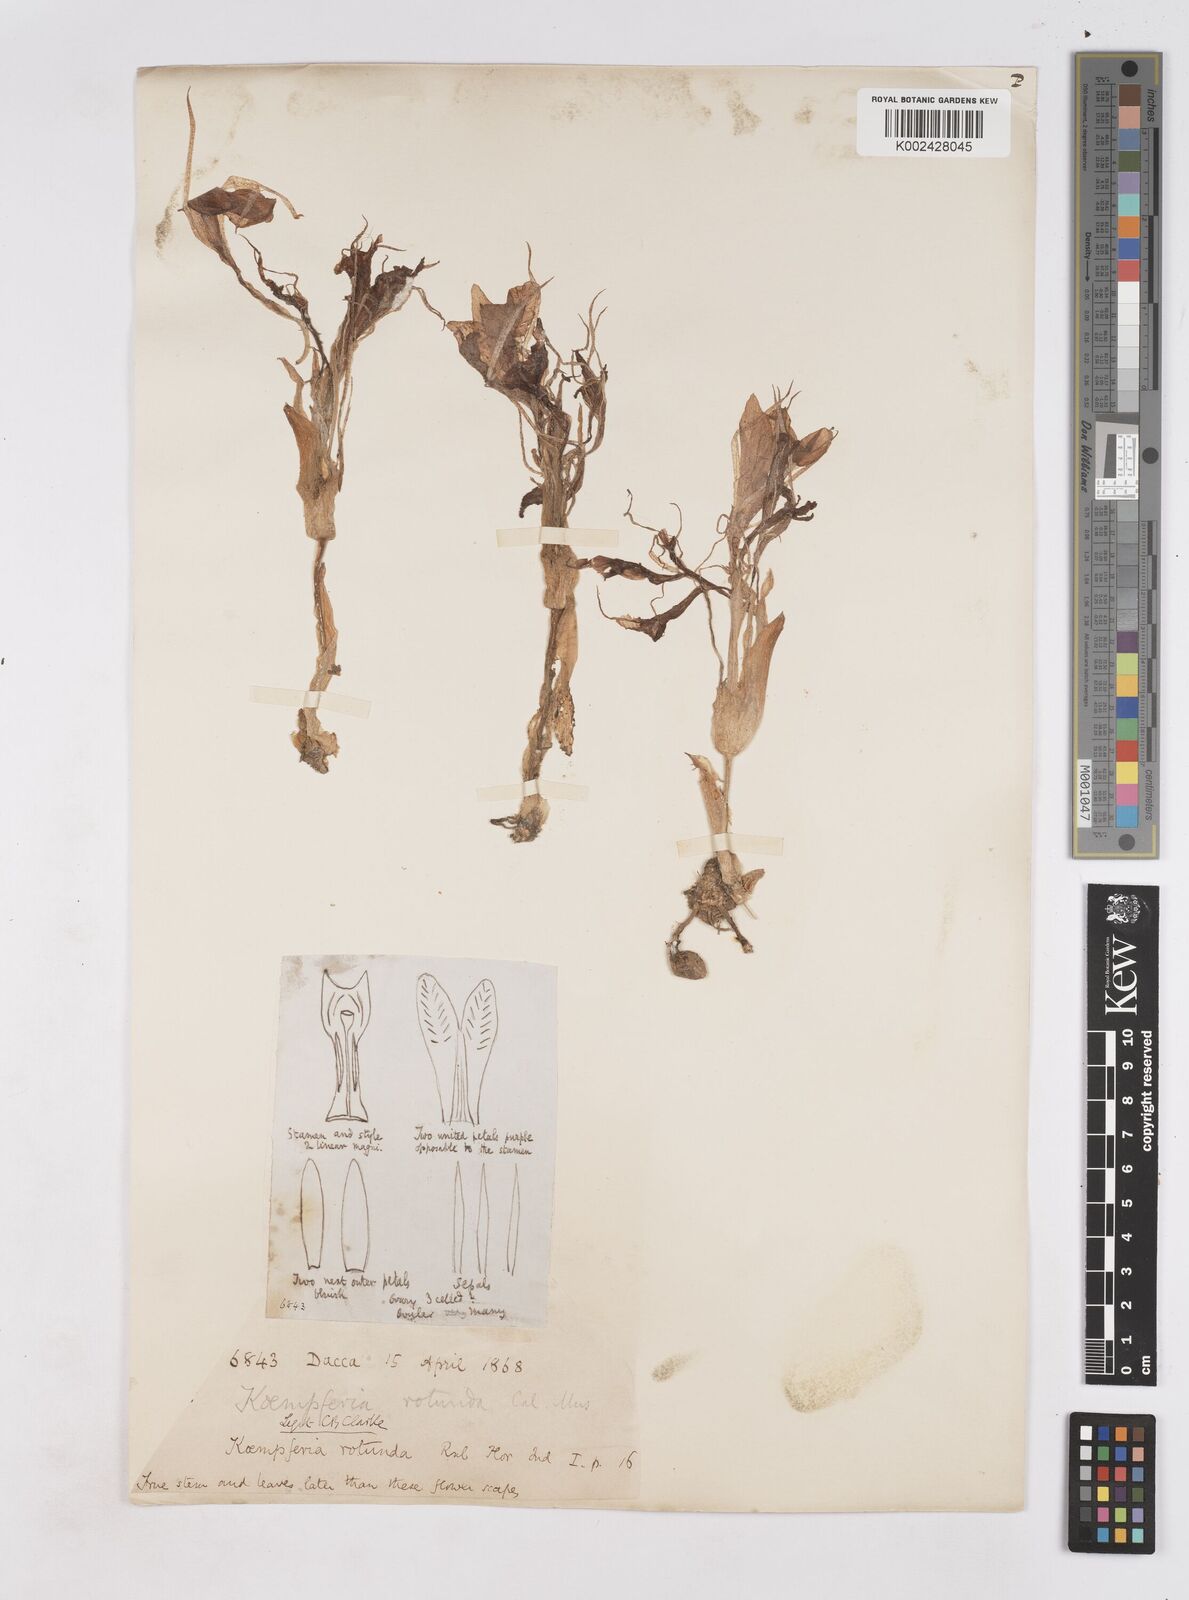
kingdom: Plantae
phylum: Tracheophyta
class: Liliopsida
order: Zingiberales
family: Zingiberaceae
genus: Kaempferia
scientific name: Kaempferia rotunda
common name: Tropical-crocus
